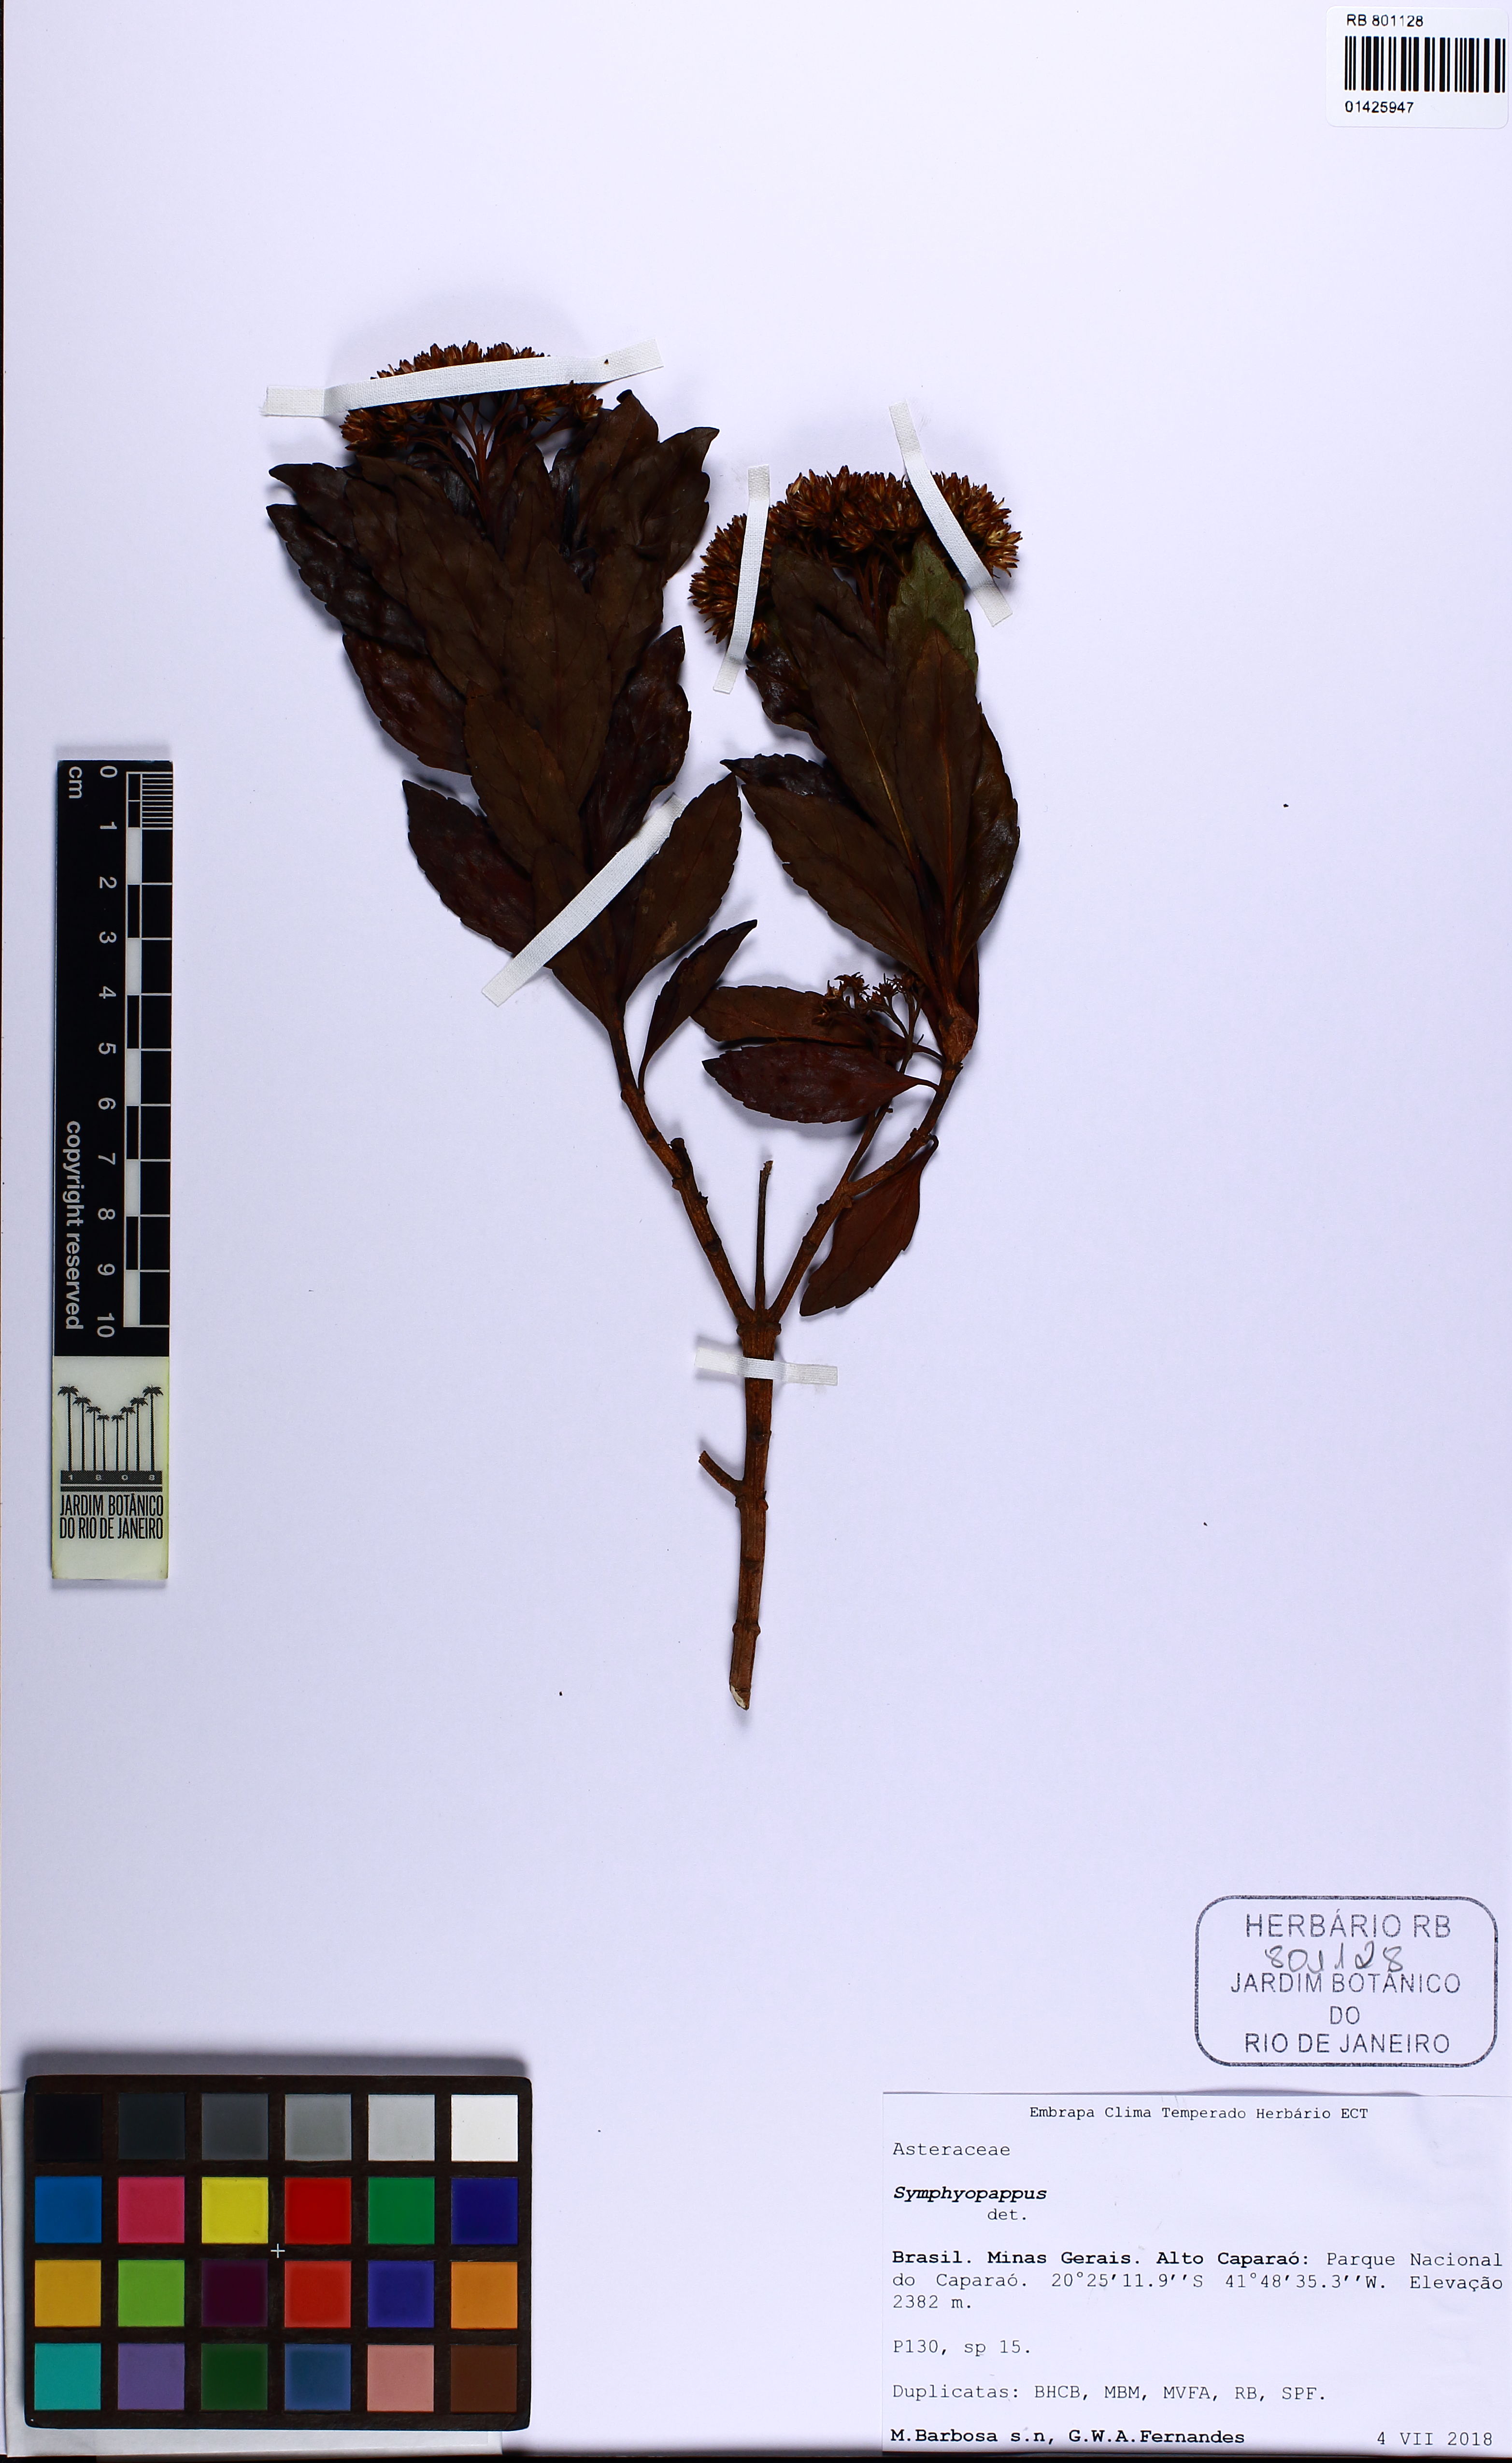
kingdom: Plantae
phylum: Tracheophyta
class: Magnoliopsida
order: Asterales
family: Asteraceae
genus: Symphyopappus
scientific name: Symphyopappus
